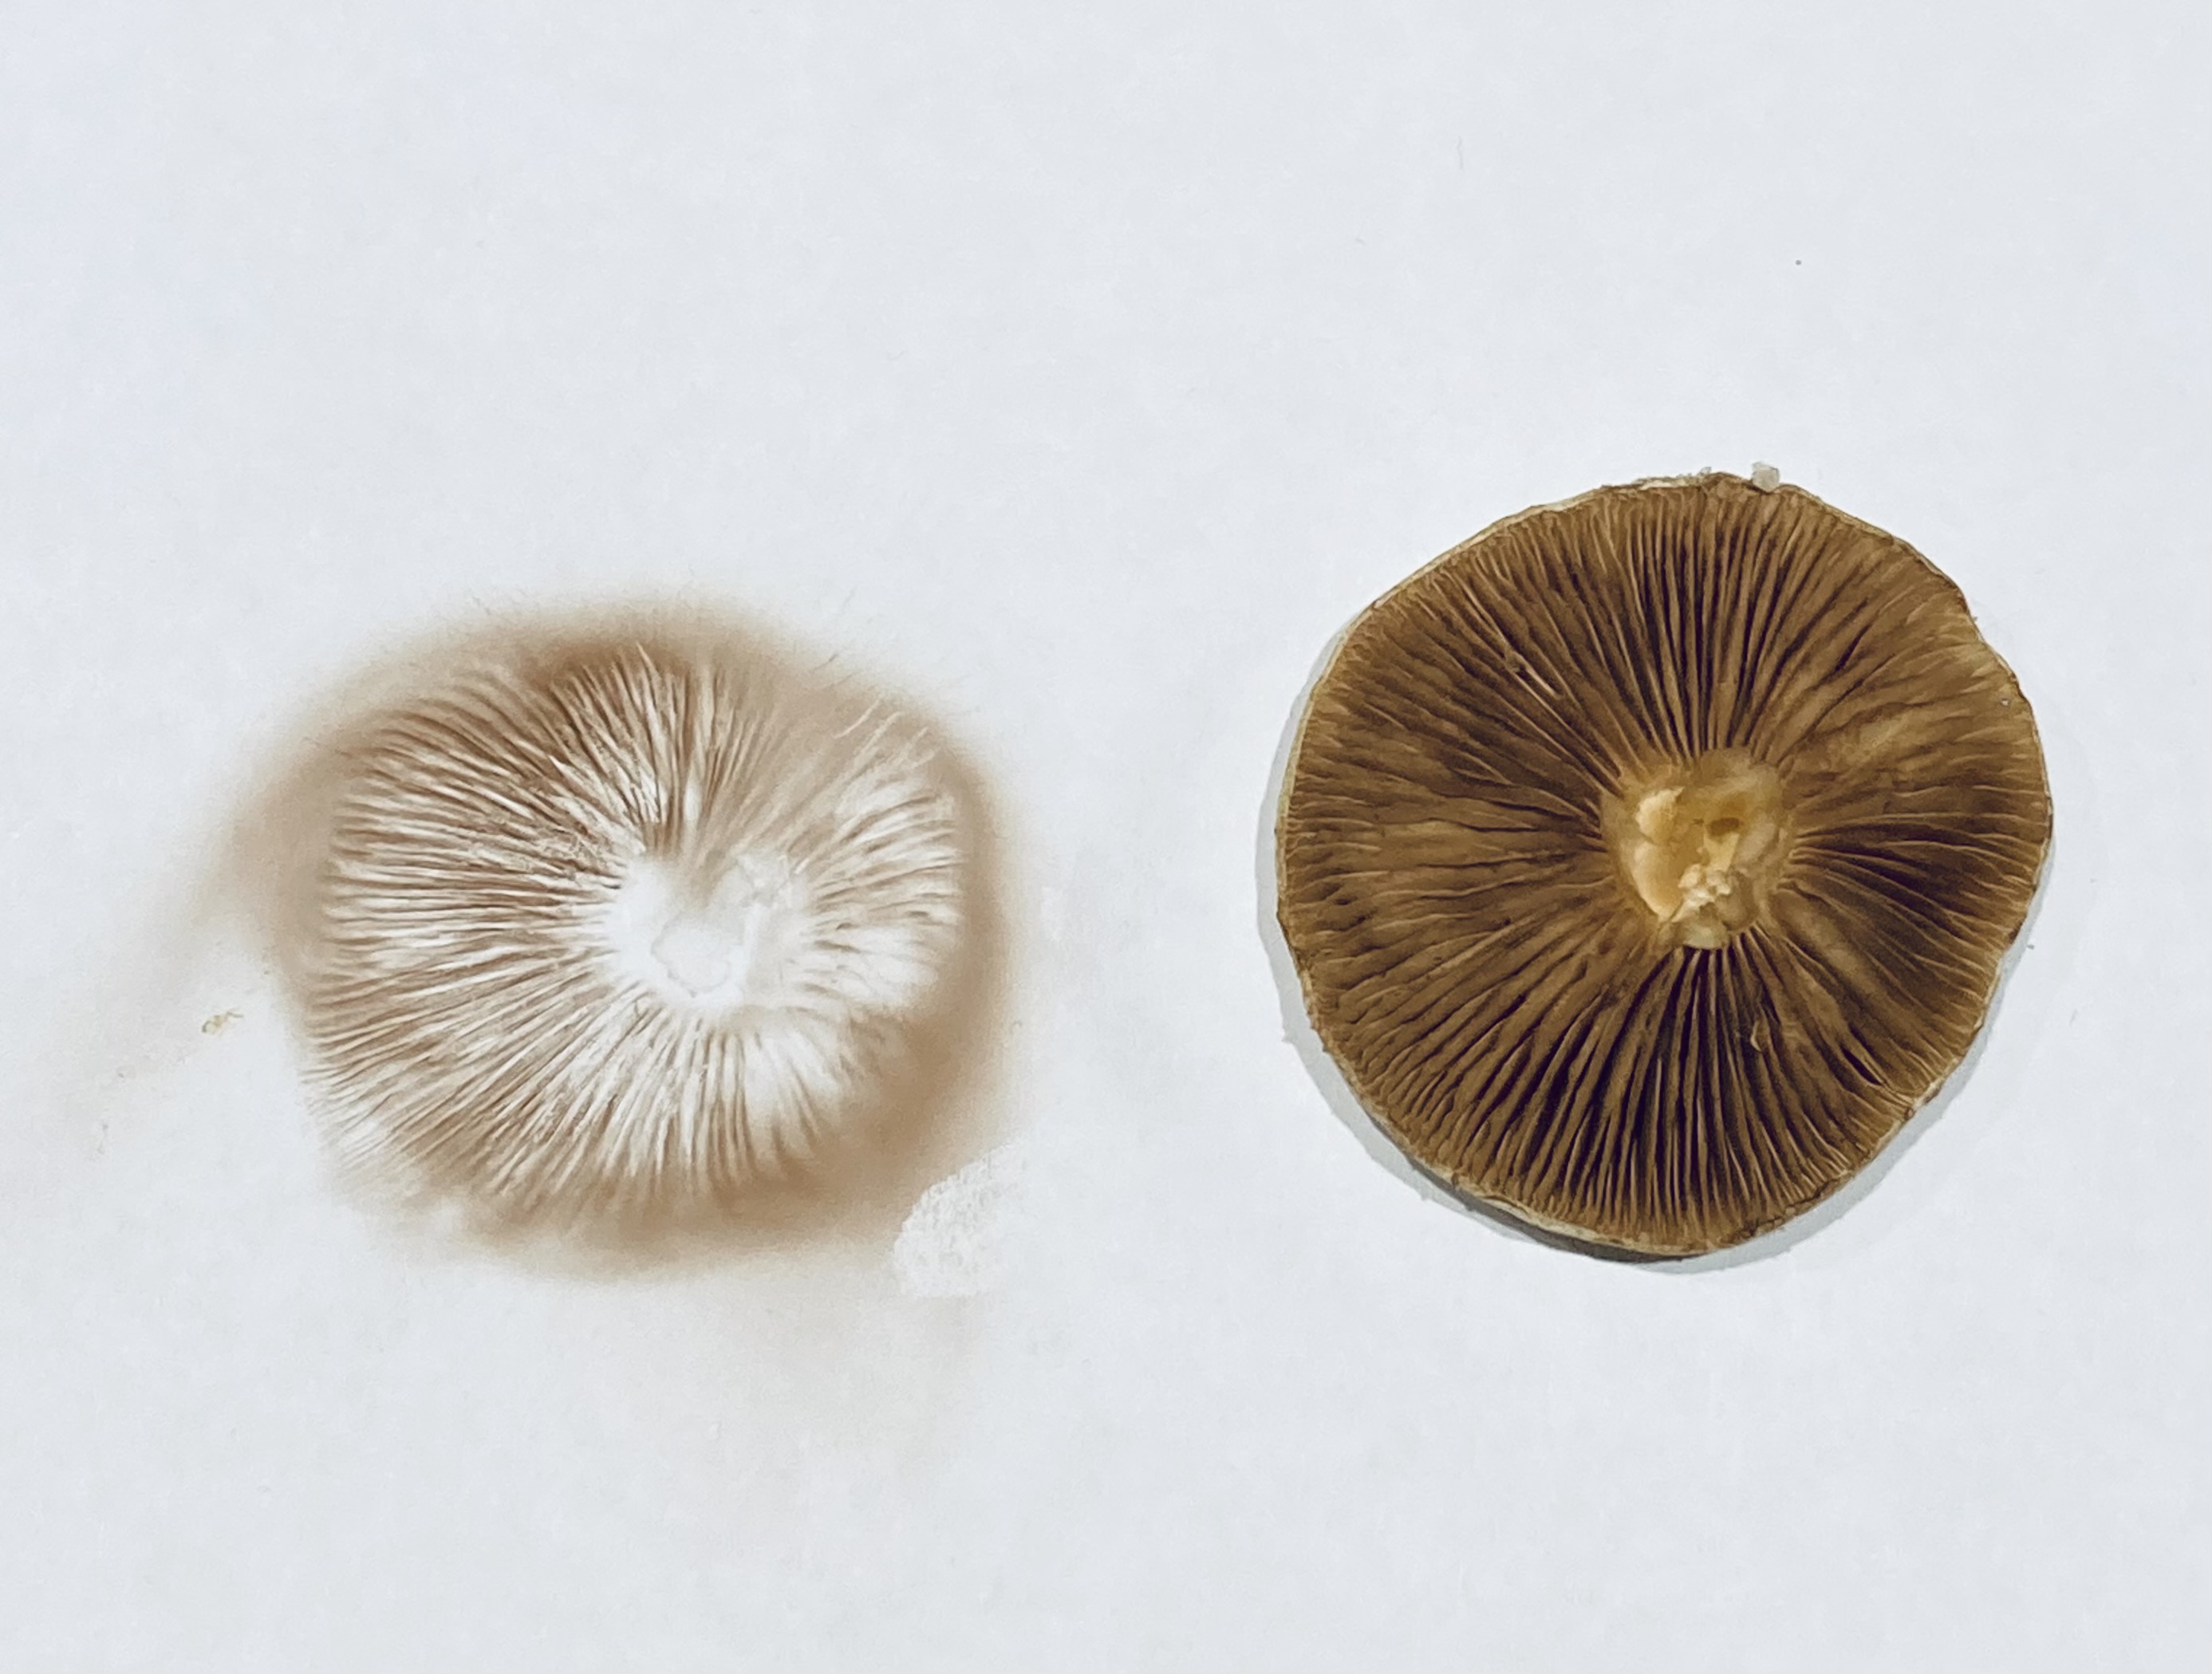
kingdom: Fungi
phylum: Basidiomycota
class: Agaricomycetes
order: Agaricales
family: Strophariaceae
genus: Pholiota
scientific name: Pholiota gummosa
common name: grøngul skælhat
